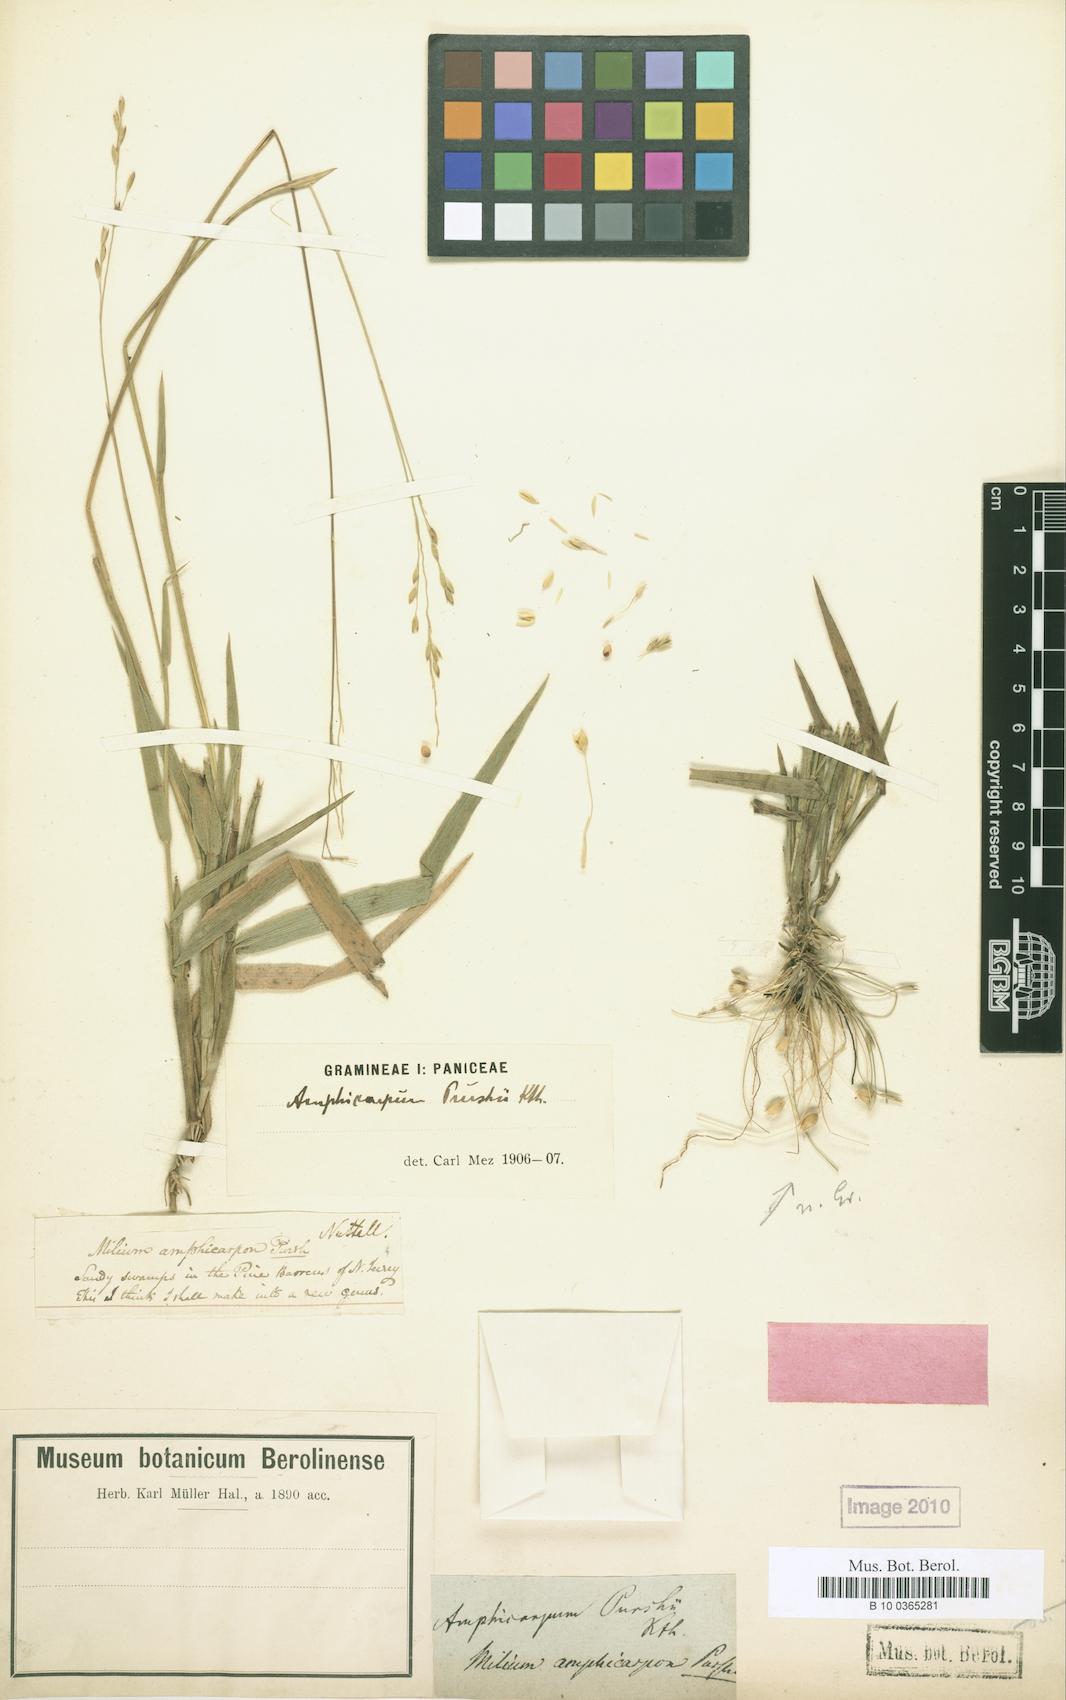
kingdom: Plantae
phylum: Tracheophyta
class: Liliopsida
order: Poales
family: Poaceae
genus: Amphicarpum
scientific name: Amphicarpum amphicarpon
